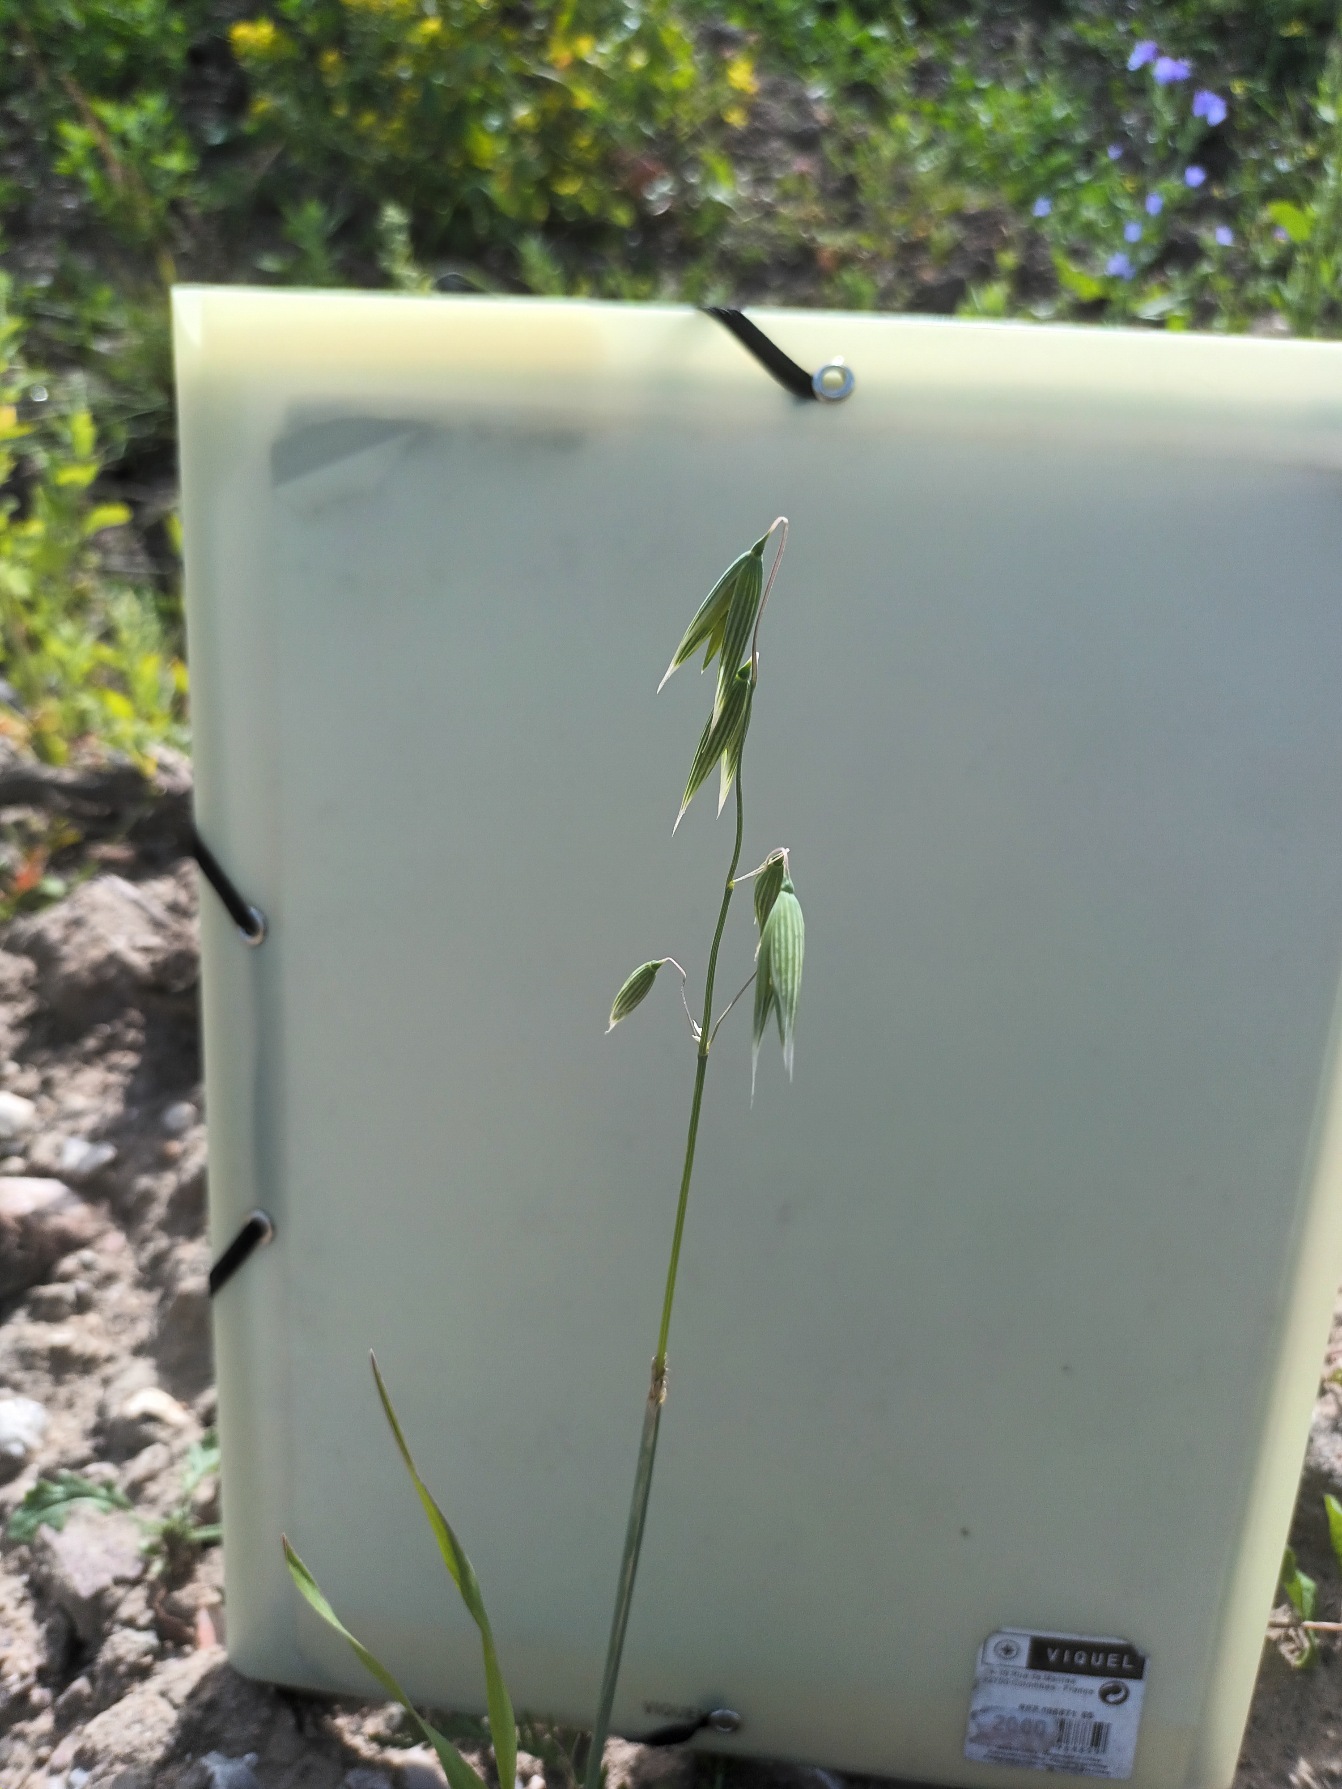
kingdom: Plantae
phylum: Tracheophyta
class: Liliopsida
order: Poales
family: Poaceae
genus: Avena
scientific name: Avena sativa
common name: Almindelig havre
